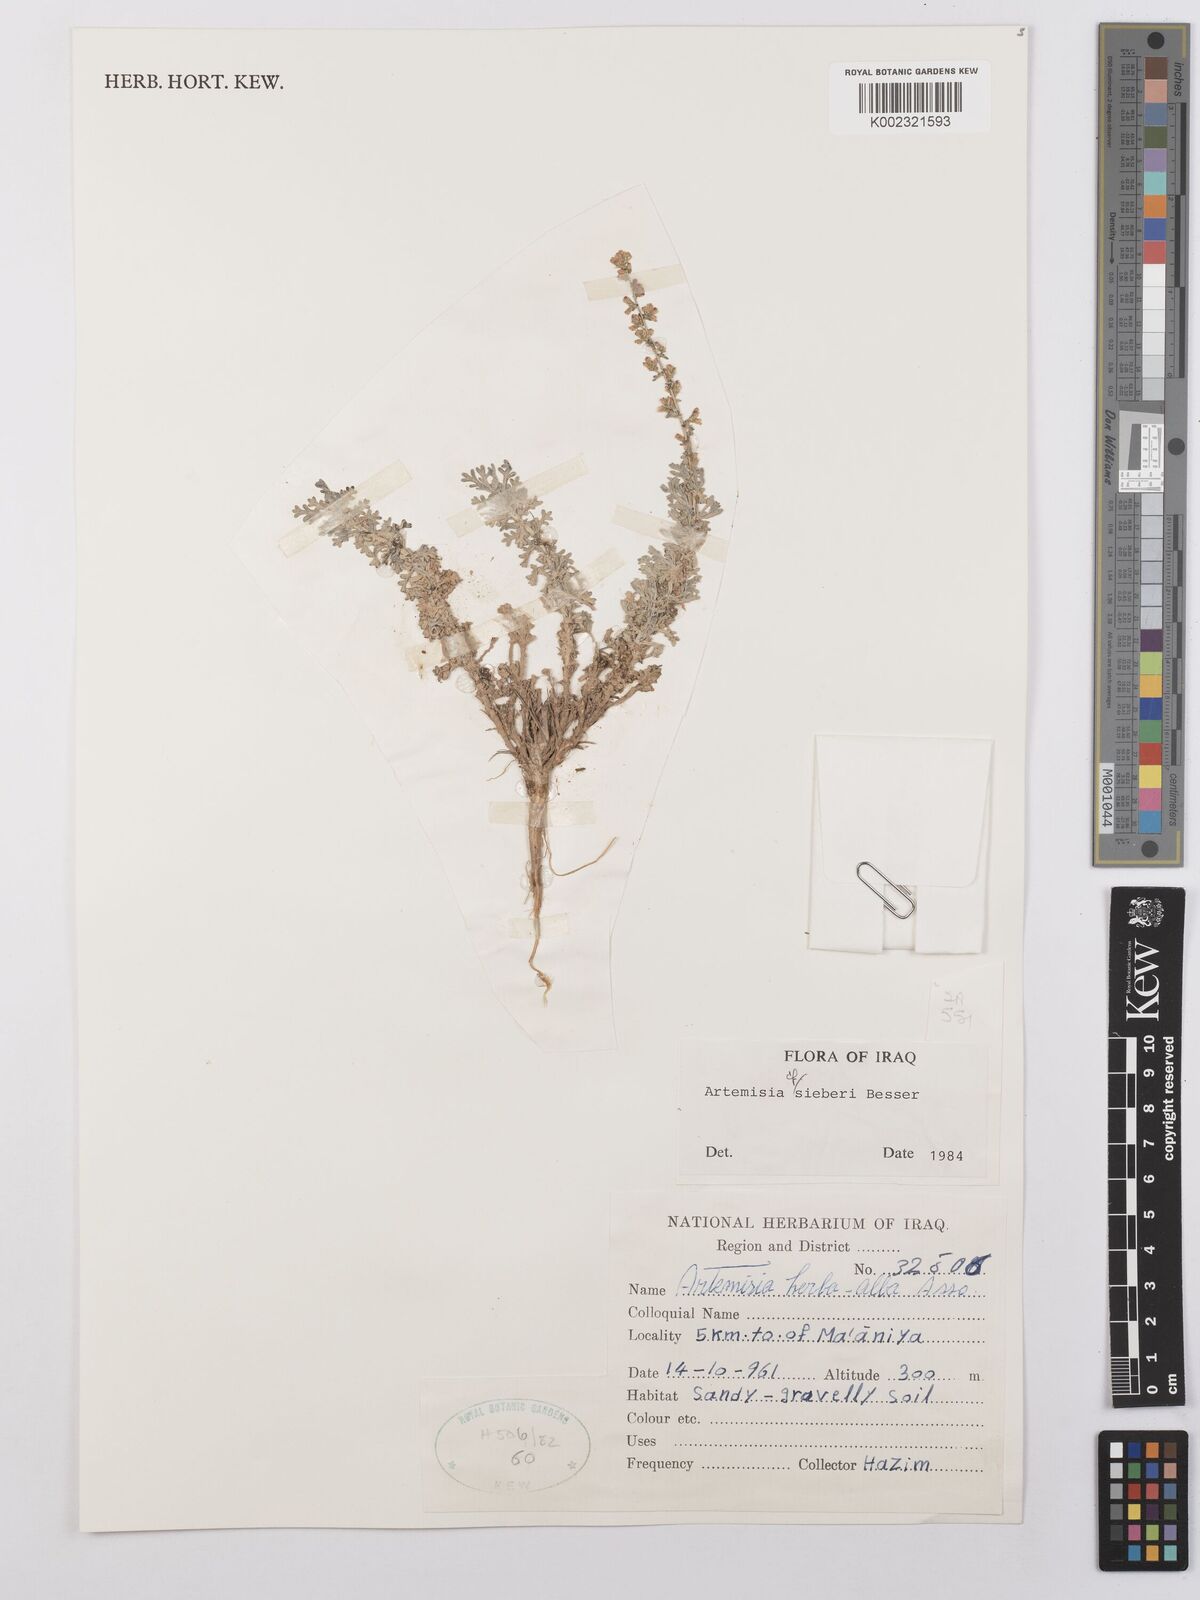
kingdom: Plantae
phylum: Tracheophyta
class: Magnoliopsida
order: Asterales
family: Asteraceae
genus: Artemisia
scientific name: Artemisia sieberi
